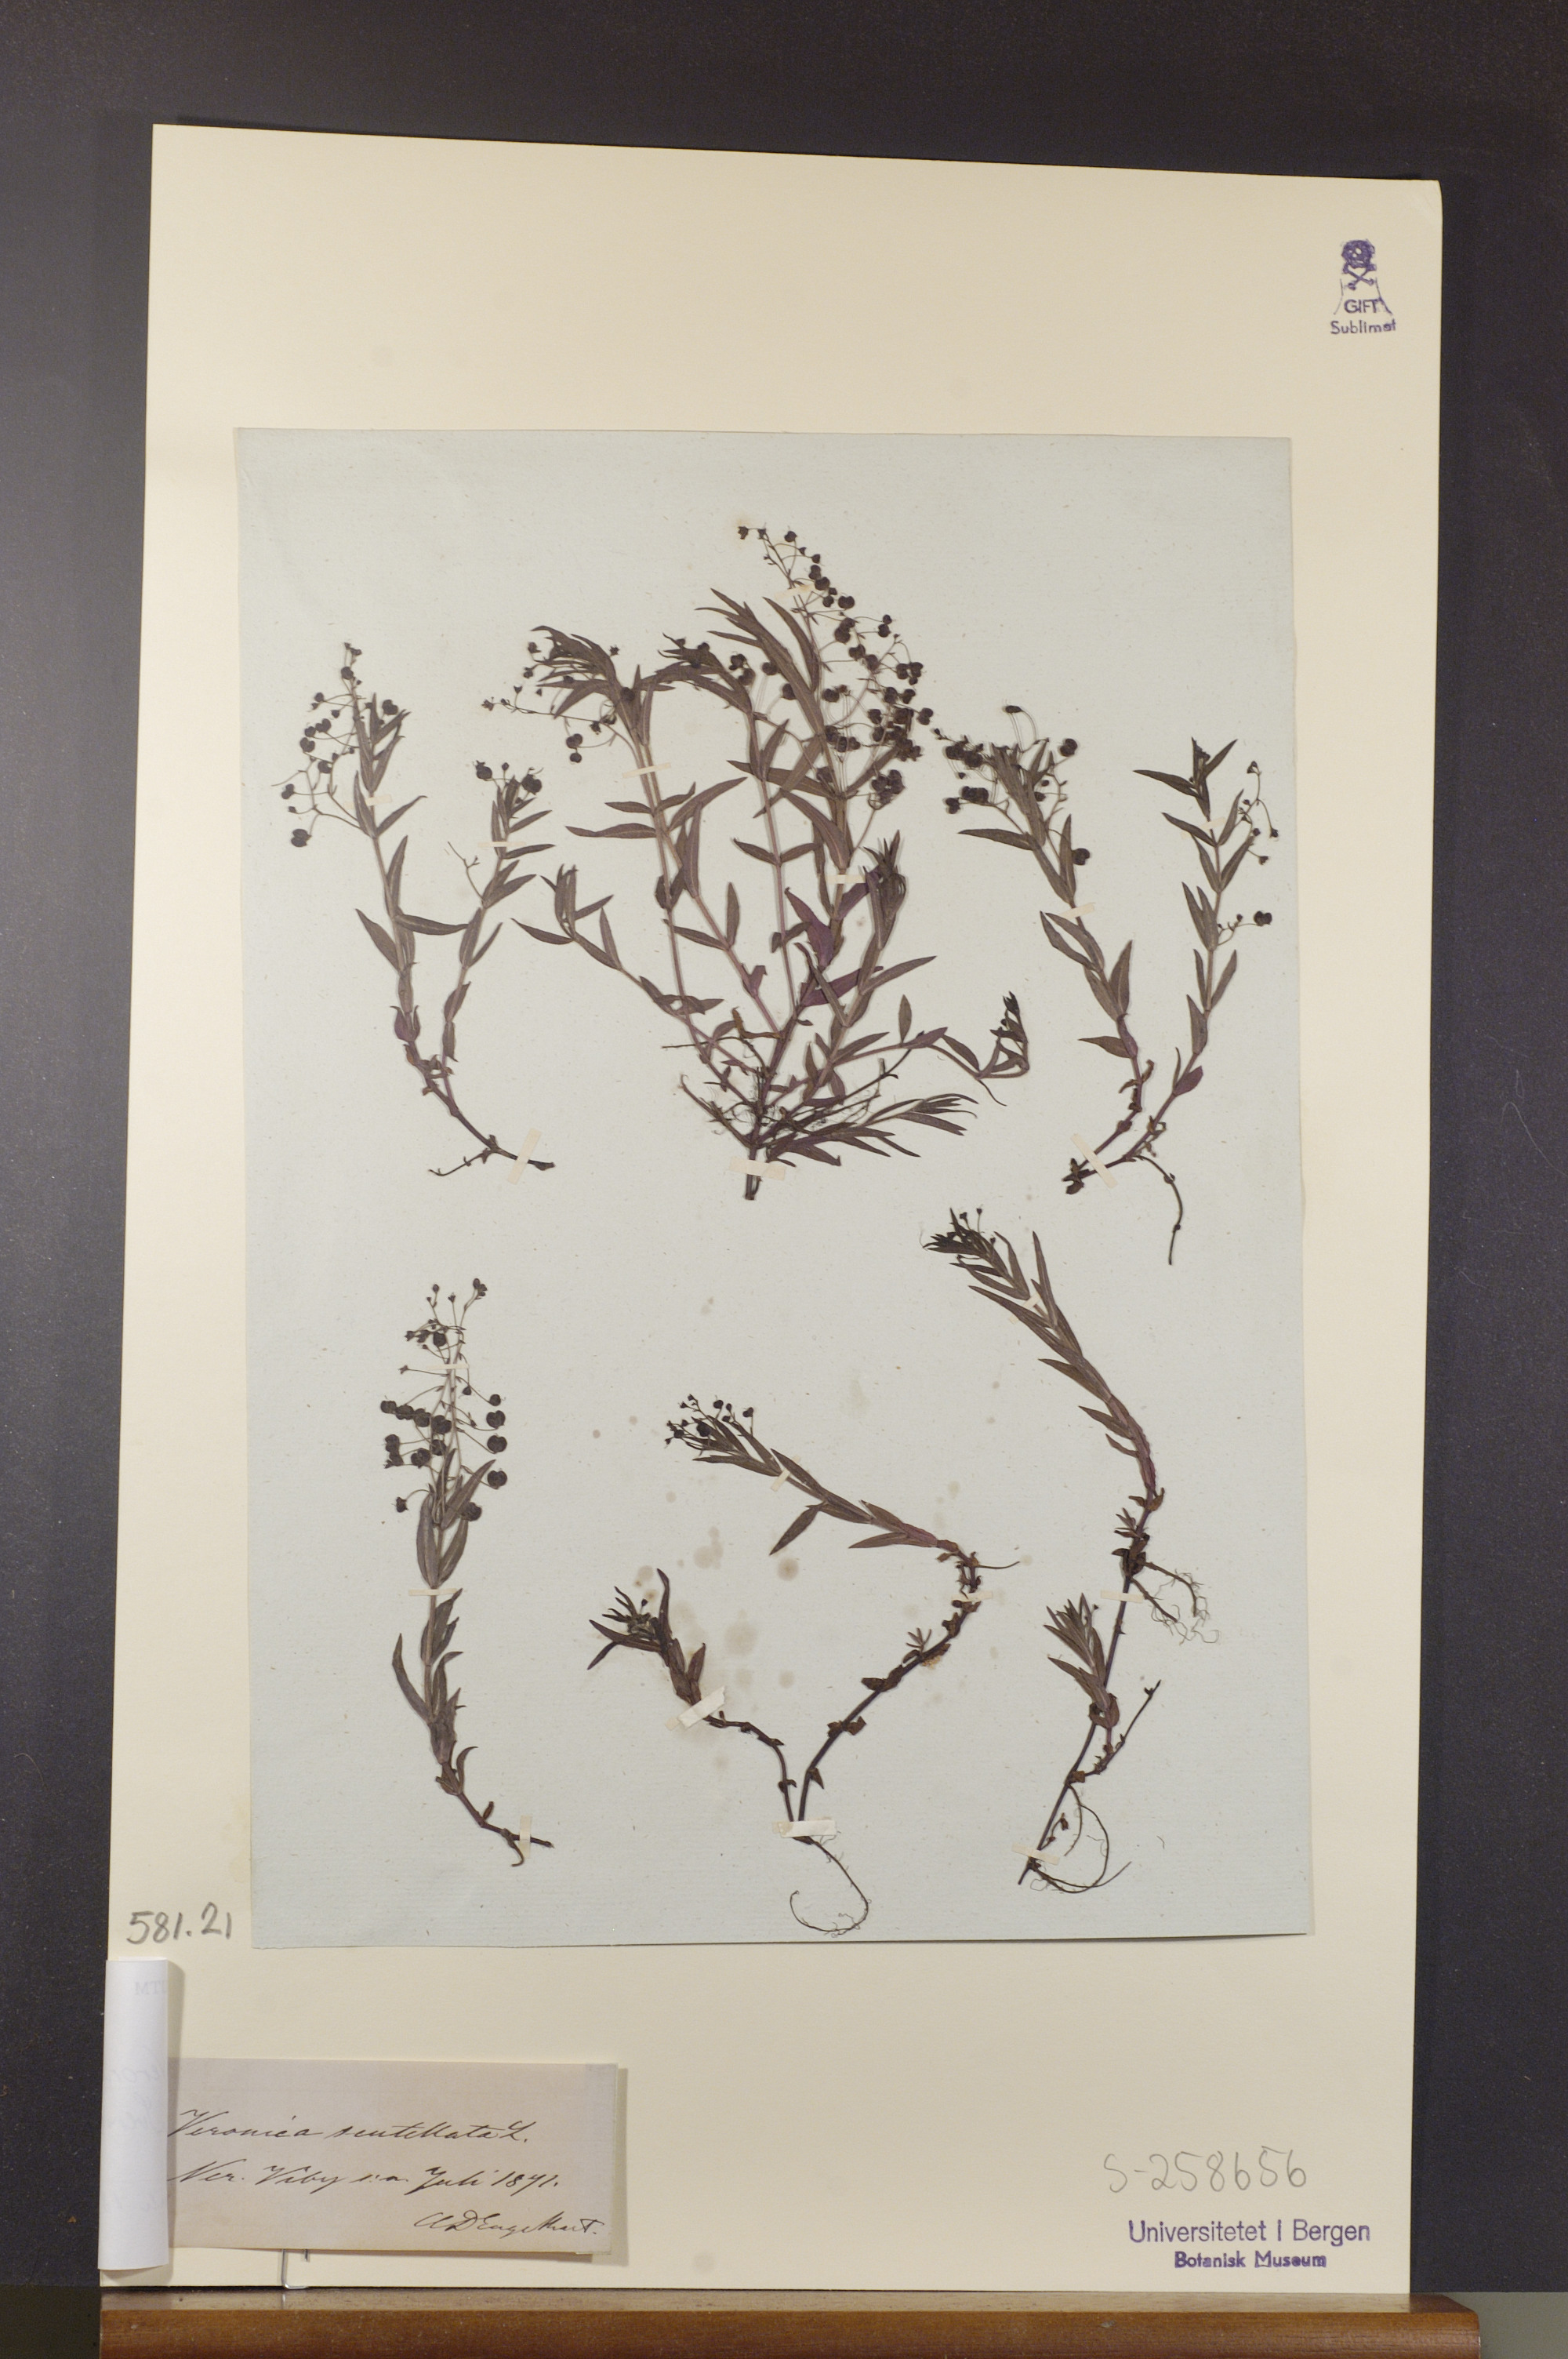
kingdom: Plantae
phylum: Tracheophyta
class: Magnoliopsida
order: Lamiales
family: Plantaginaceae
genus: Veronica
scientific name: Veronica scutellata
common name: Marsh speedwell
